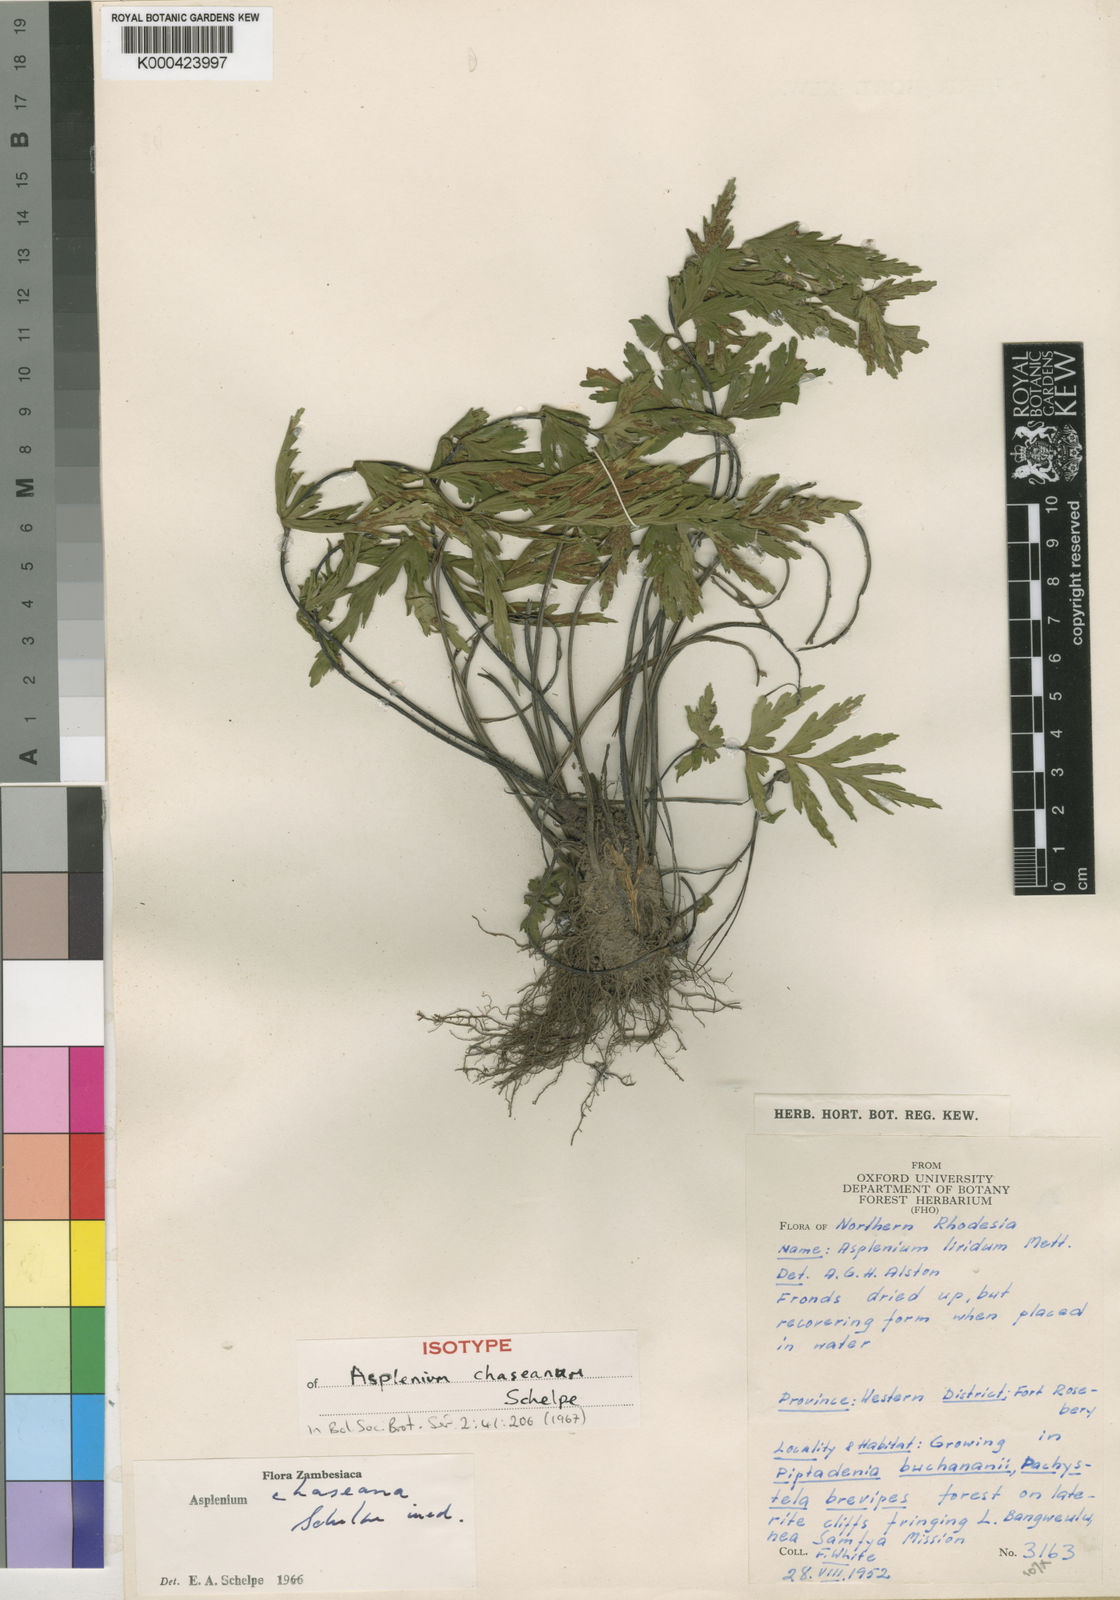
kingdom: Plantae
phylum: Tracheophyta
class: Polypodiopsida
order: Polypodiales
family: Aspleniaceae
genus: Asplenium
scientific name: Asplenium chaseanum
